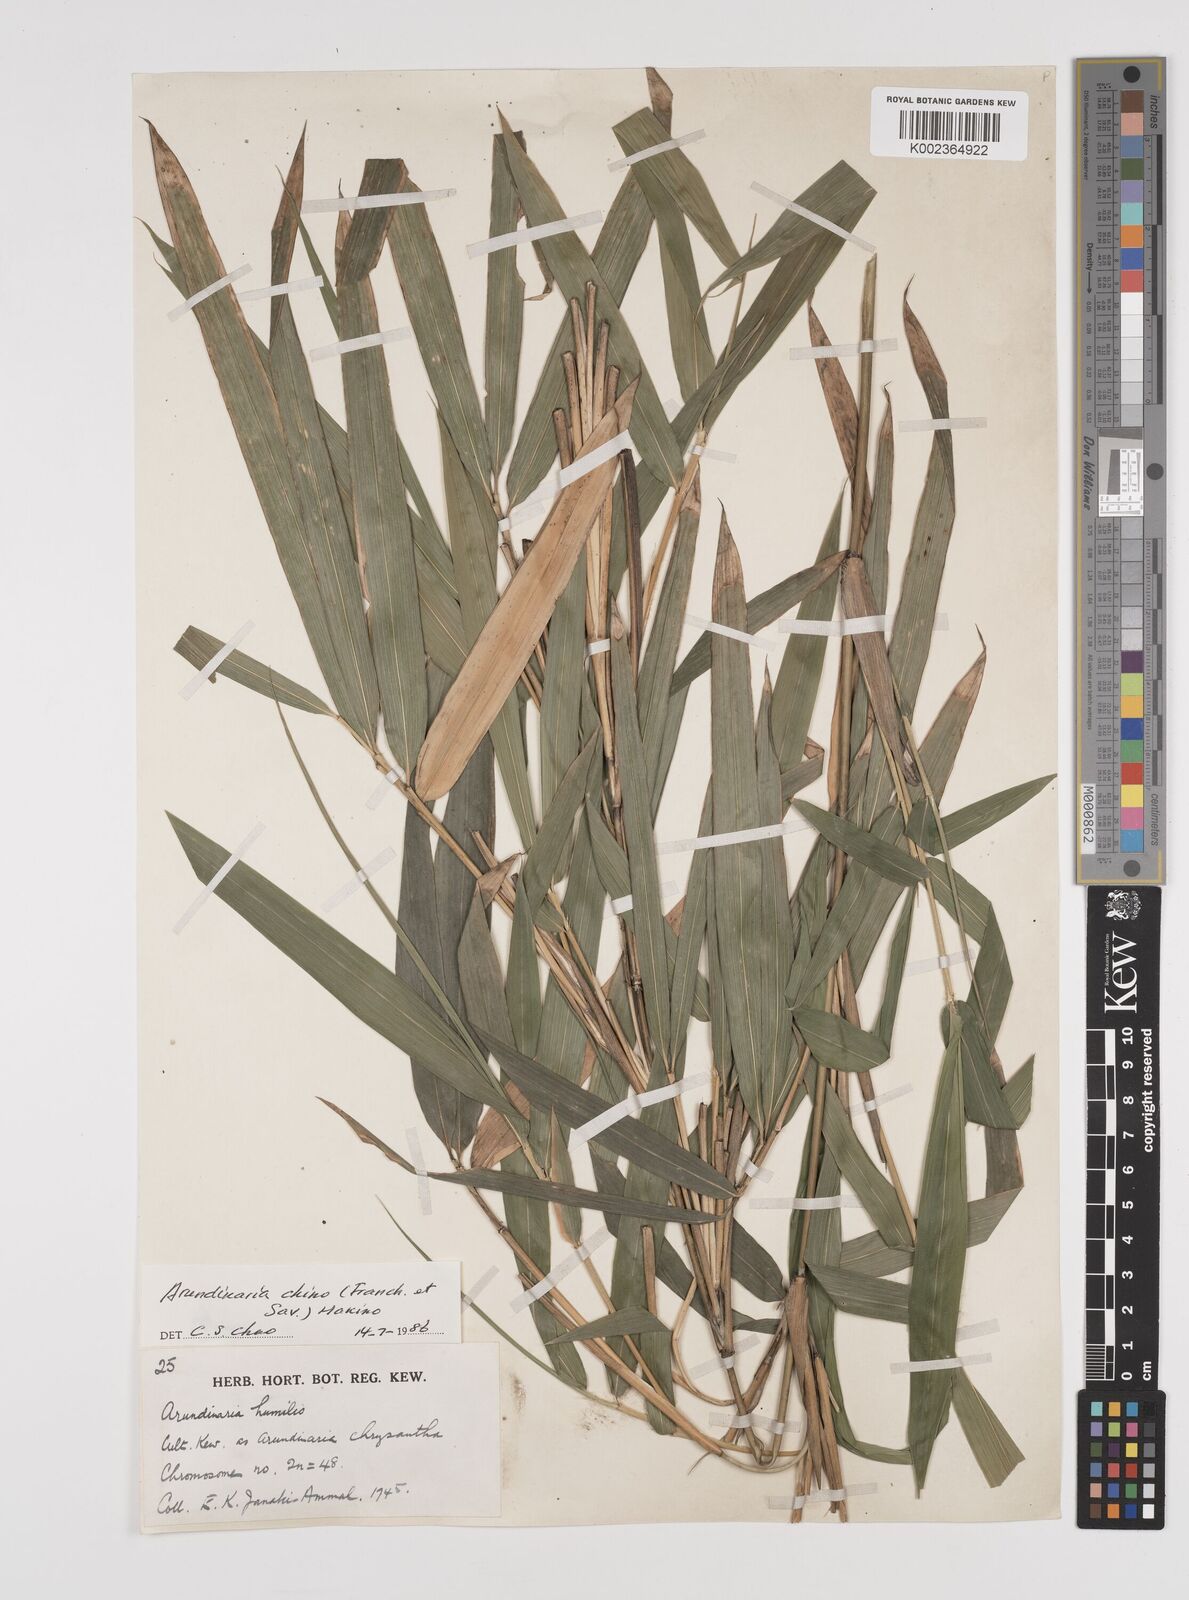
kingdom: Plantae
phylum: Tracheophyta
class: Liliopsida
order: Poales
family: Poaceae
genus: Pleioblastus
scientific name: Pleioblastus argenteostriatus
